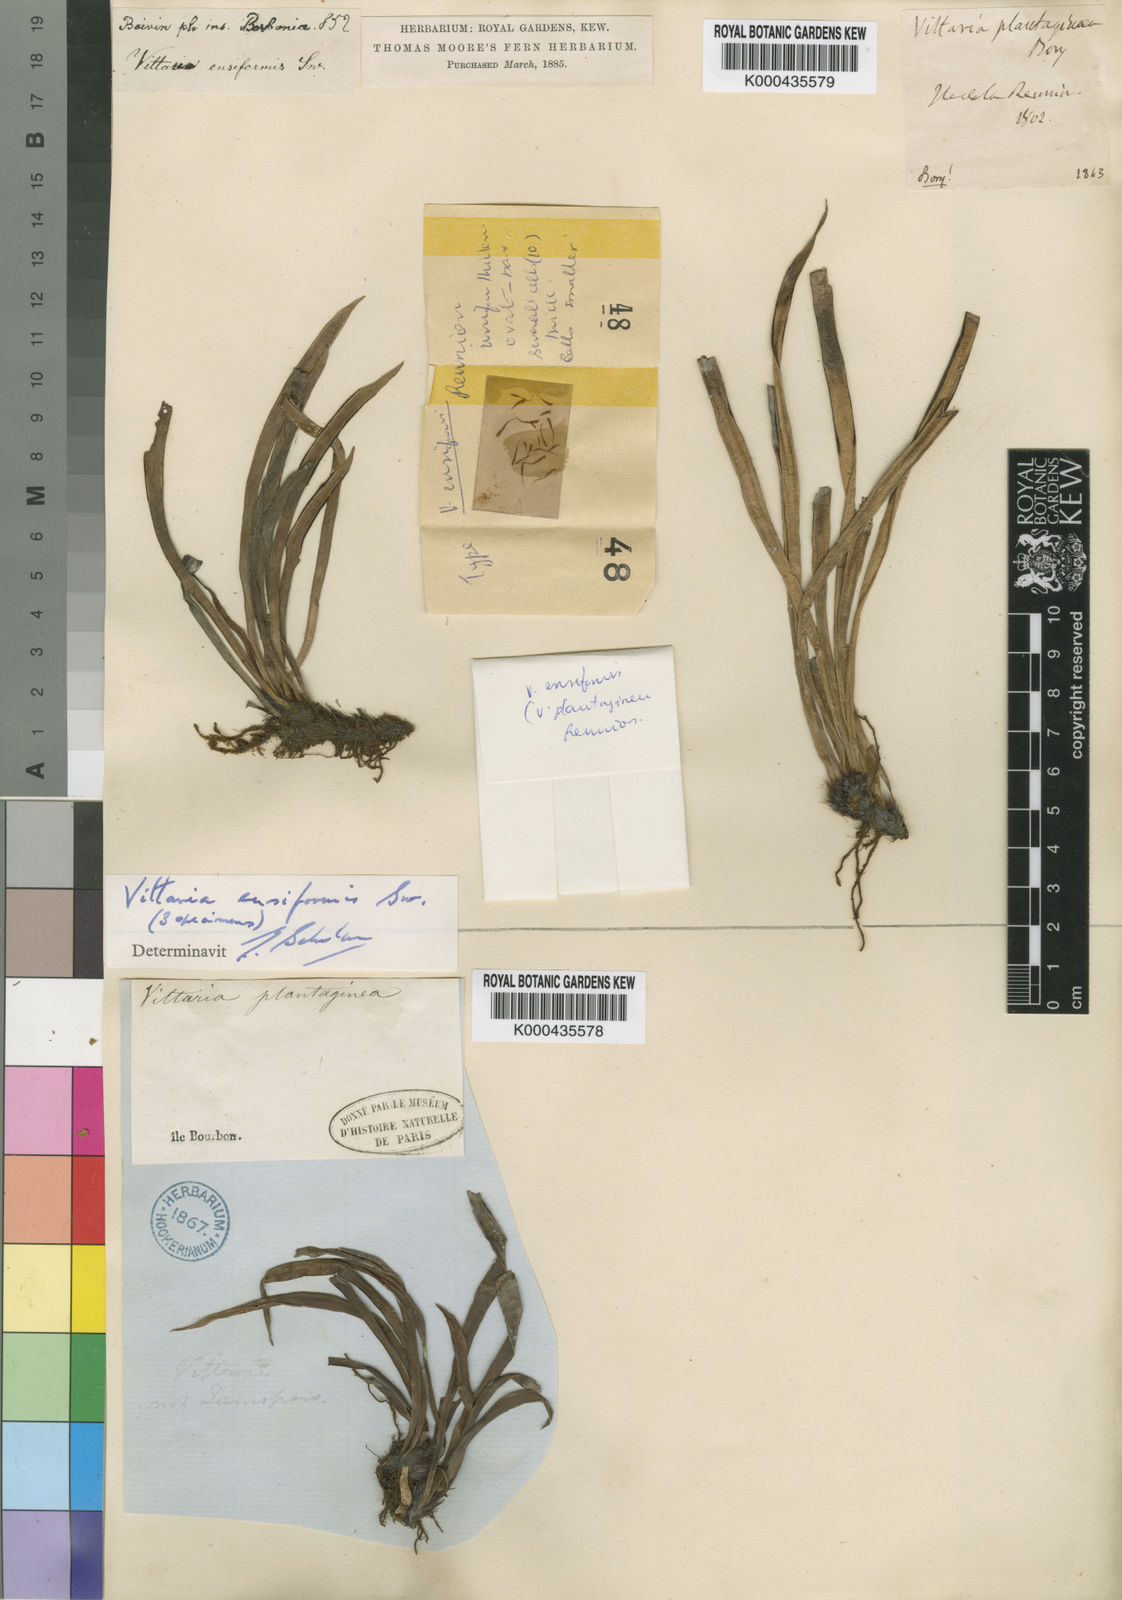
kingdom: Plantae
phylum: Tracheophyta
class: Polypodiopsida
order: Polypodiales
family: Pteridaceae
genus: Haplopteris
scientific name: Haplopteris ensiformis
